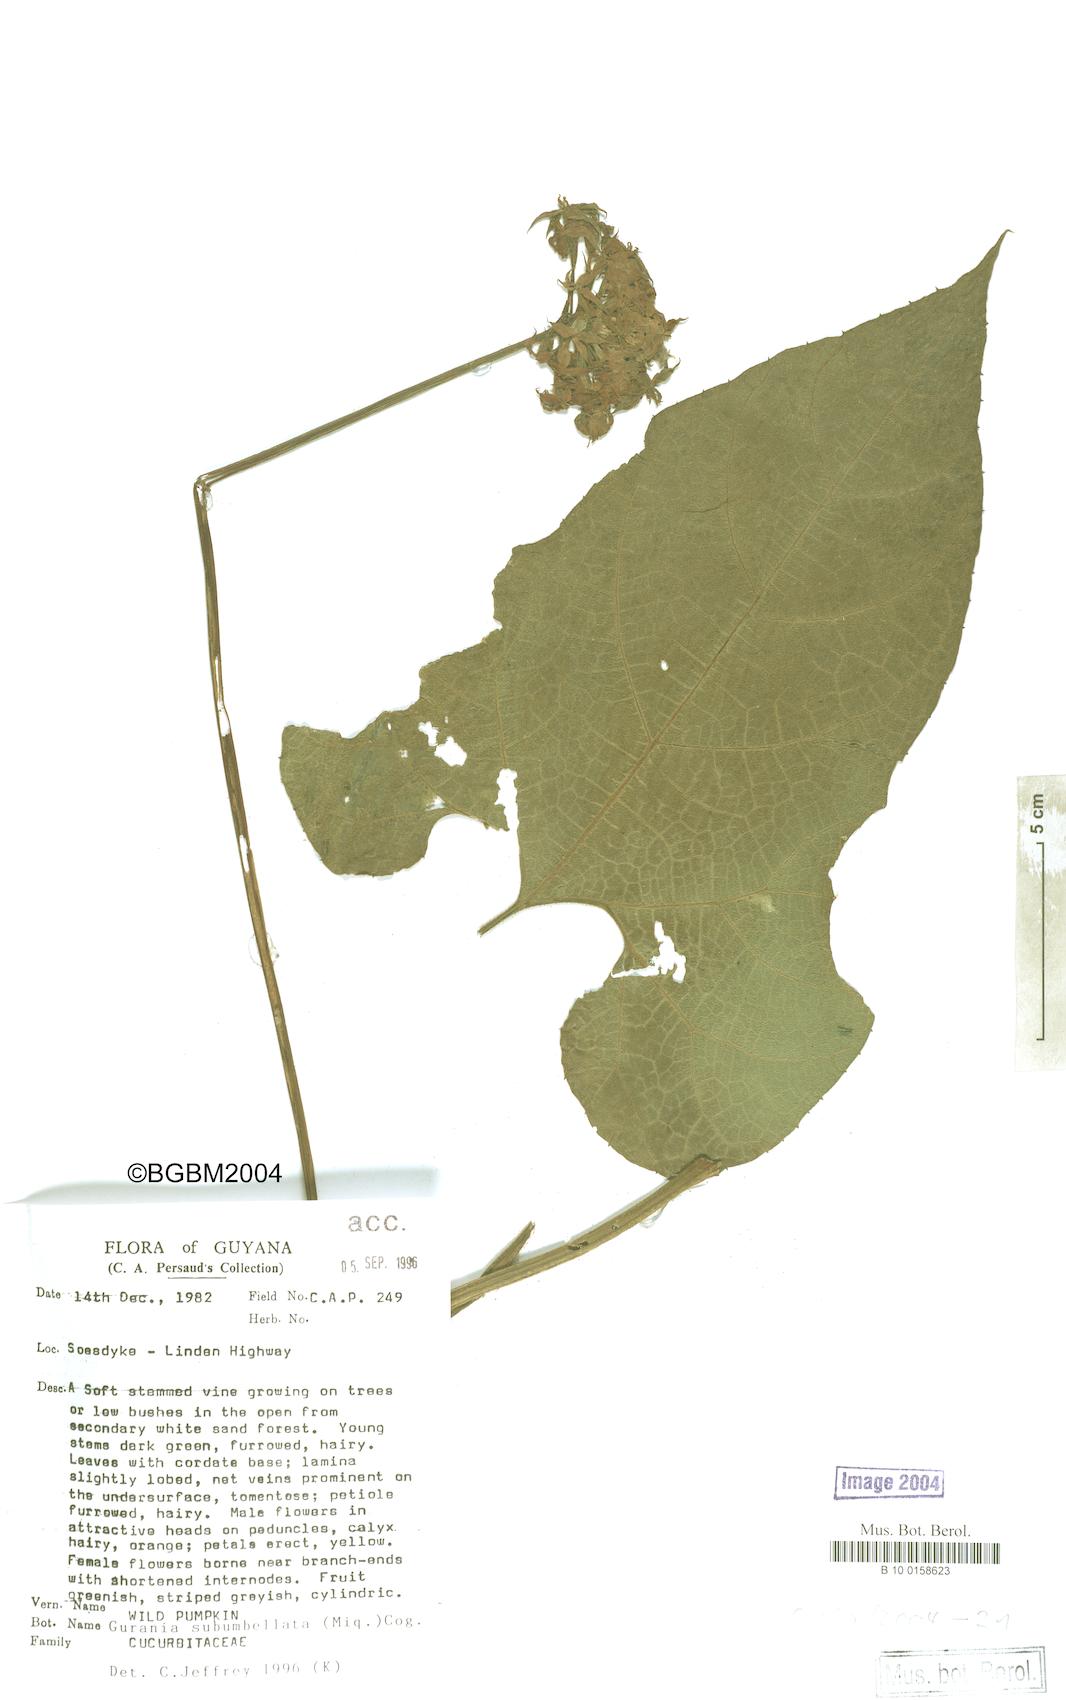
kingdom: Plantae
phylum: Tracheophyta
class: Magnoliopsida
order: Cucurbitales
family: Cucurbitaceae
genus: Gurania
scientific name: Gurania subumbellata
